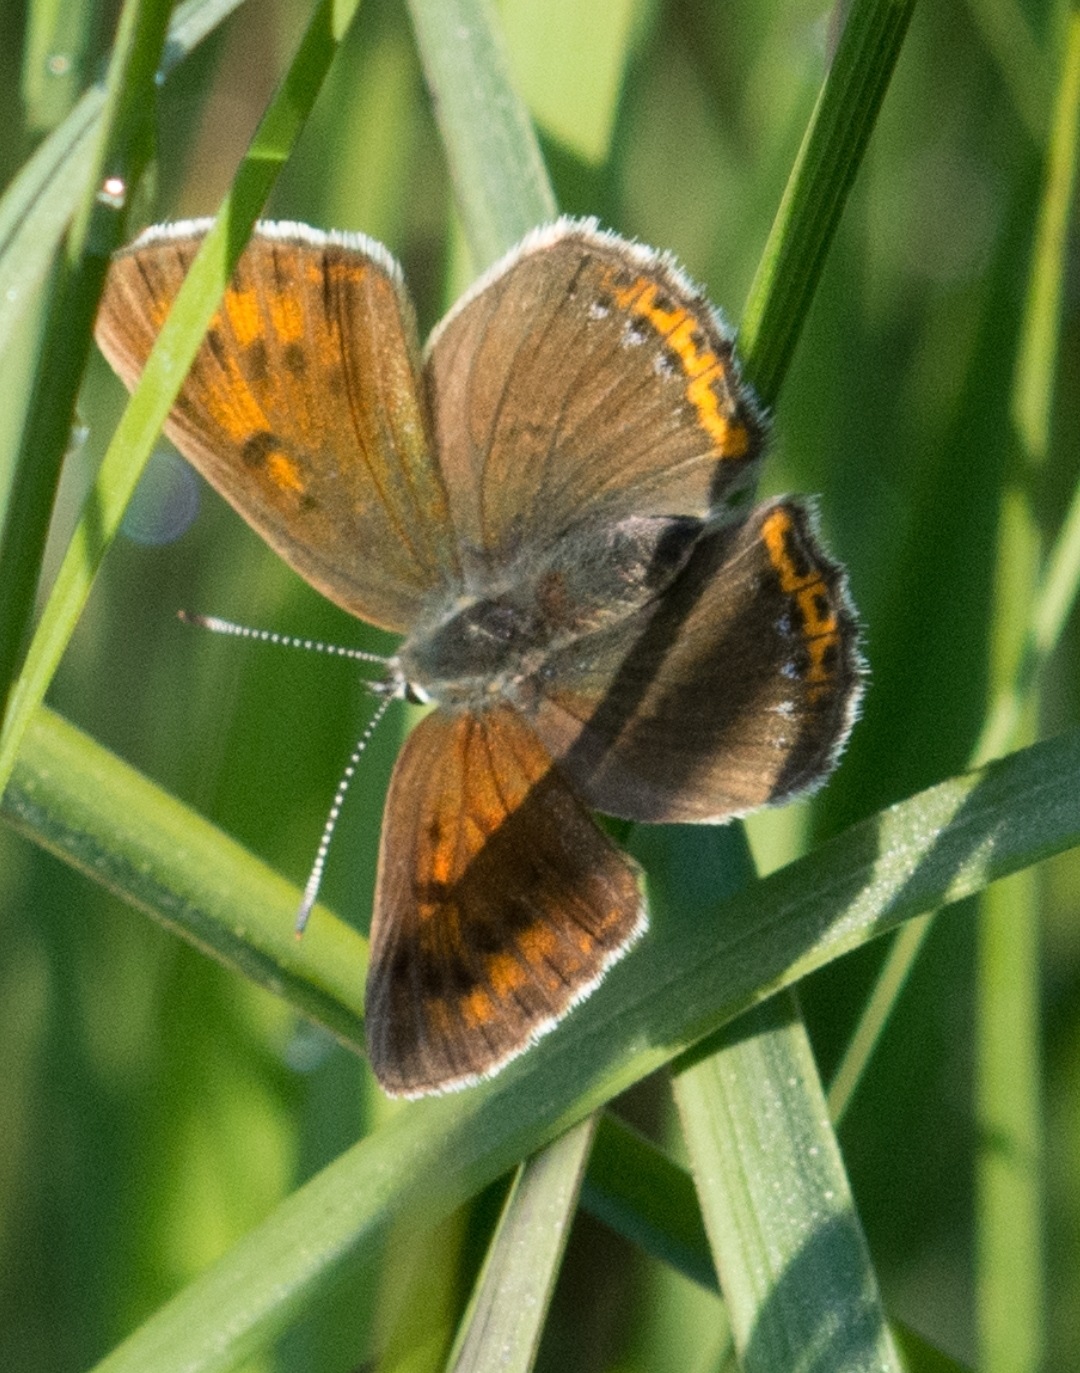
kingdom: Animalia
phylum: Arthropoda
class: Insecta
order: Lepidoptera
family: Lycaenidae
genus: Palaeochrysophanus
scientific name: Palaeochrysophanus hippothoe
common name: Violetrandet ildfugl
